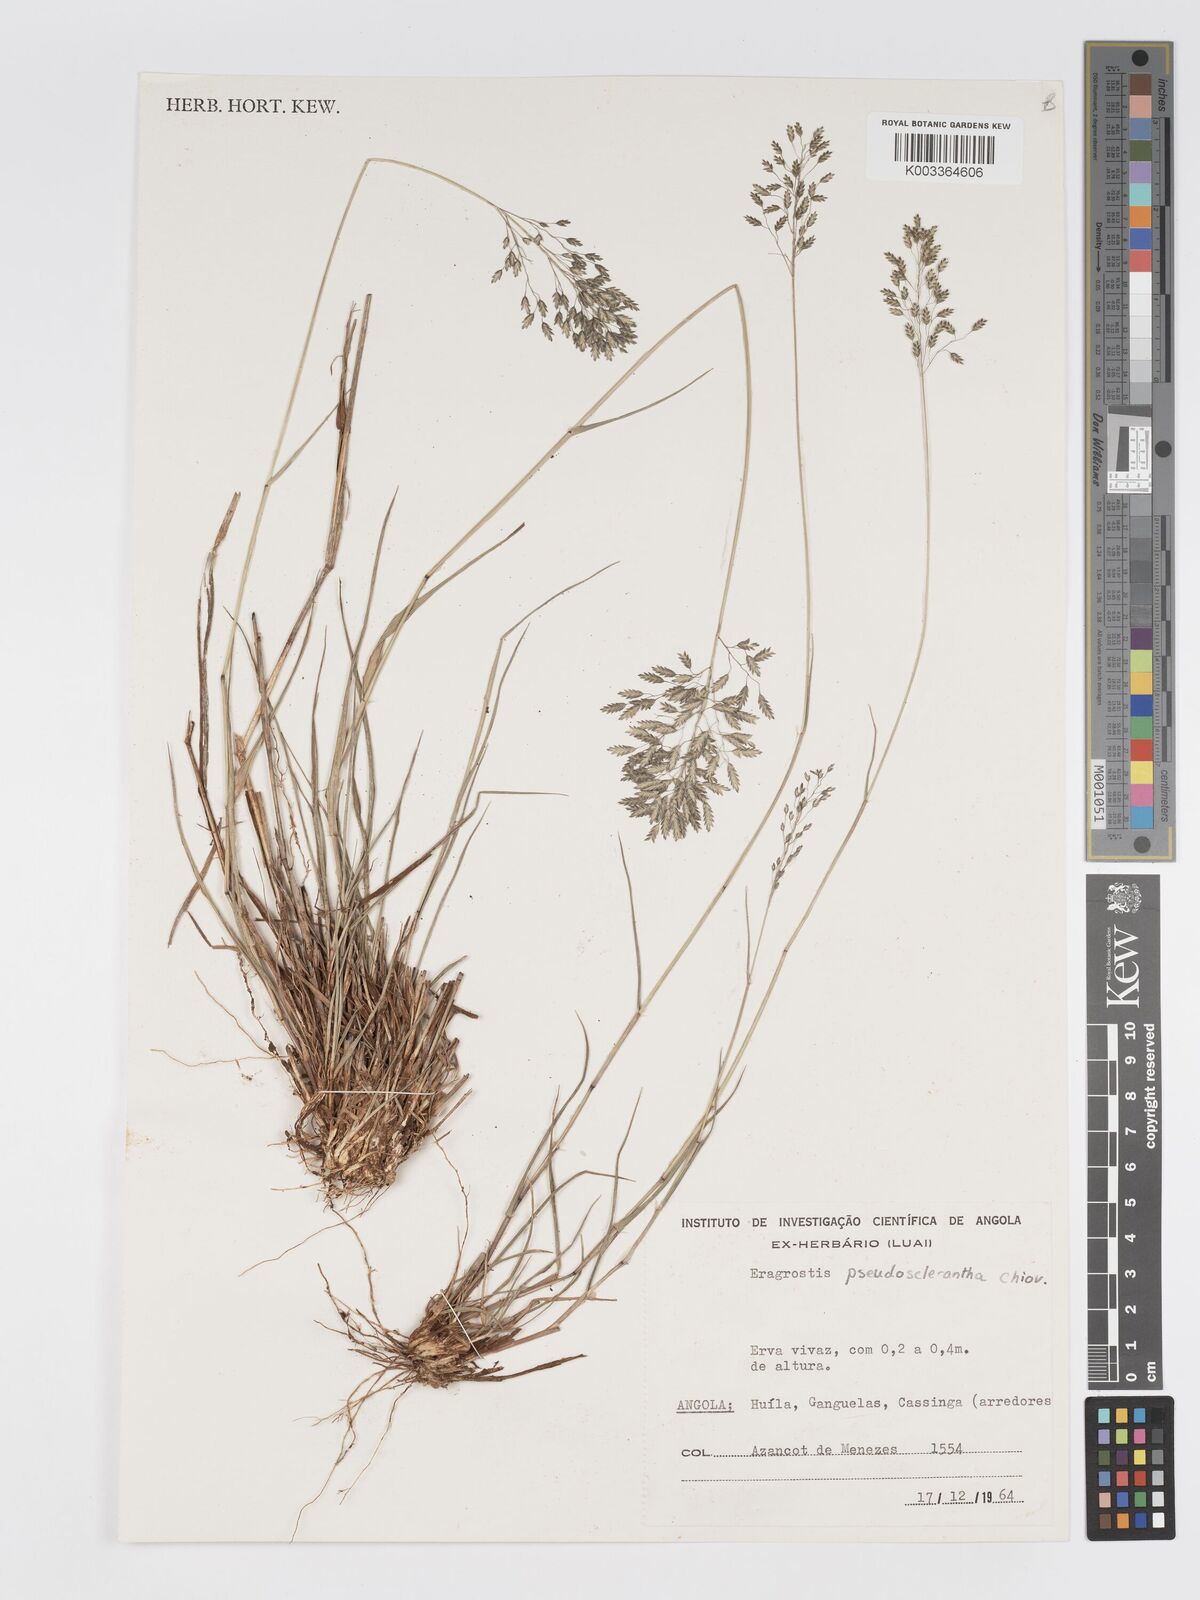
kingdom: Plantae
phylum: Tracheophyta
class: Liliopsida
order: Poales
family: Poaceae
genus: Eragrostis
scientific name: Eragrostis patentipilosa
